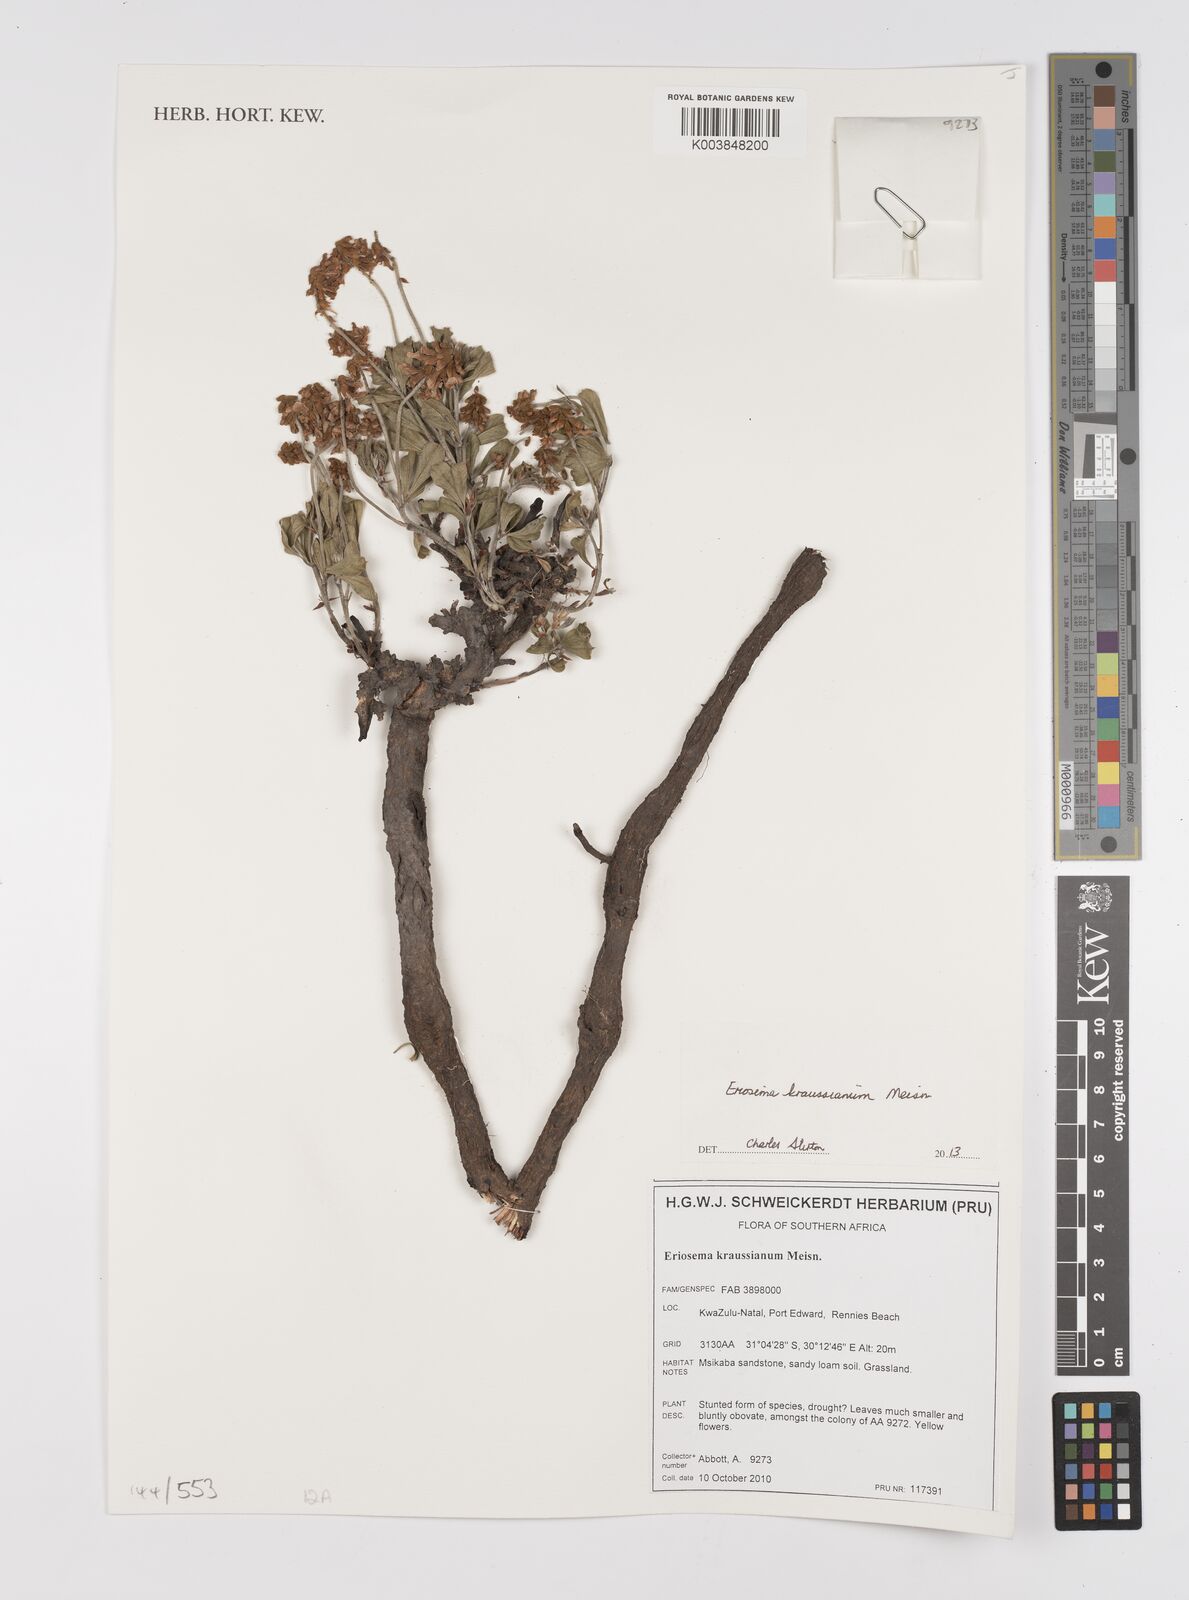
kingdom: Plantae
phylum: Tracheophyta
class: Magnoliopsida
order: Fabales
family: Fabaceae
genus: Eriosema
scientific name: Eriosema kraussianum
